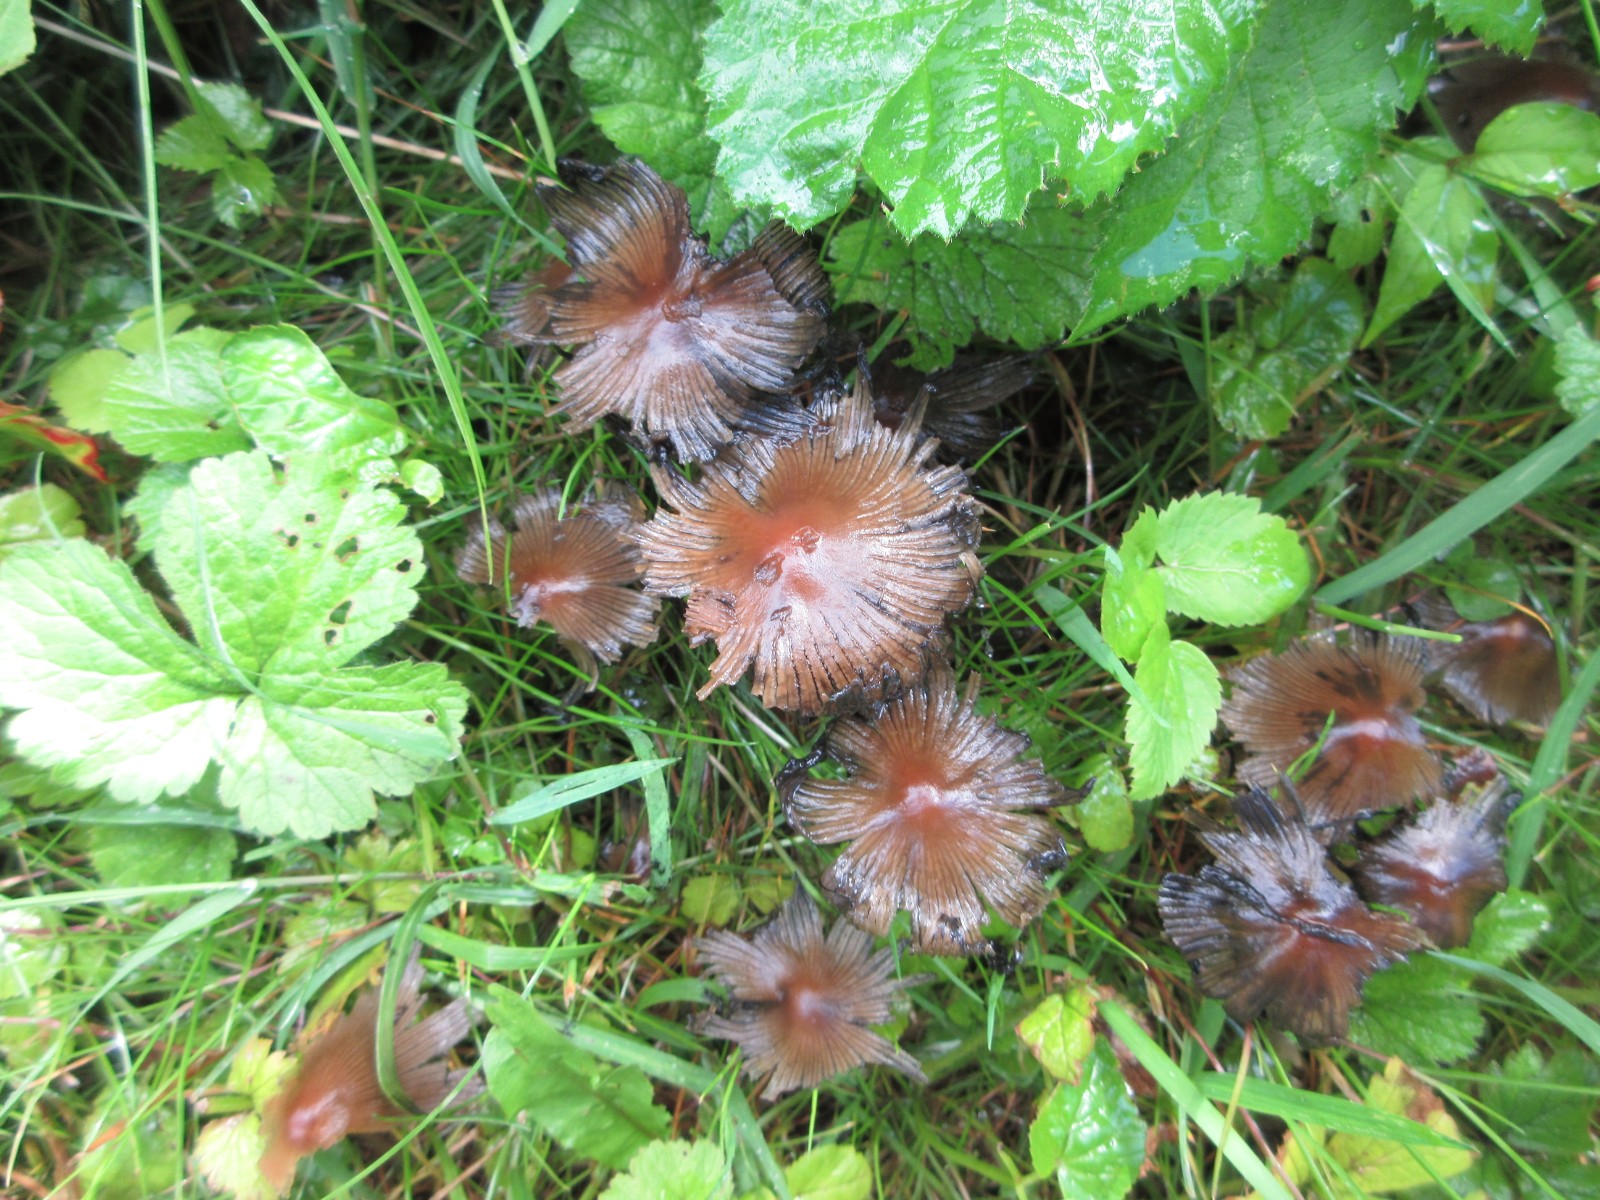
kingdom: Fungi
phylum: Basidiomycota
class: Agaricomycetes
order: Agaricales
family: Psathyrellaceae
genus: Coprinellus
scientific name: Coprinellus micaceus
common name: glimmer-blækhat
